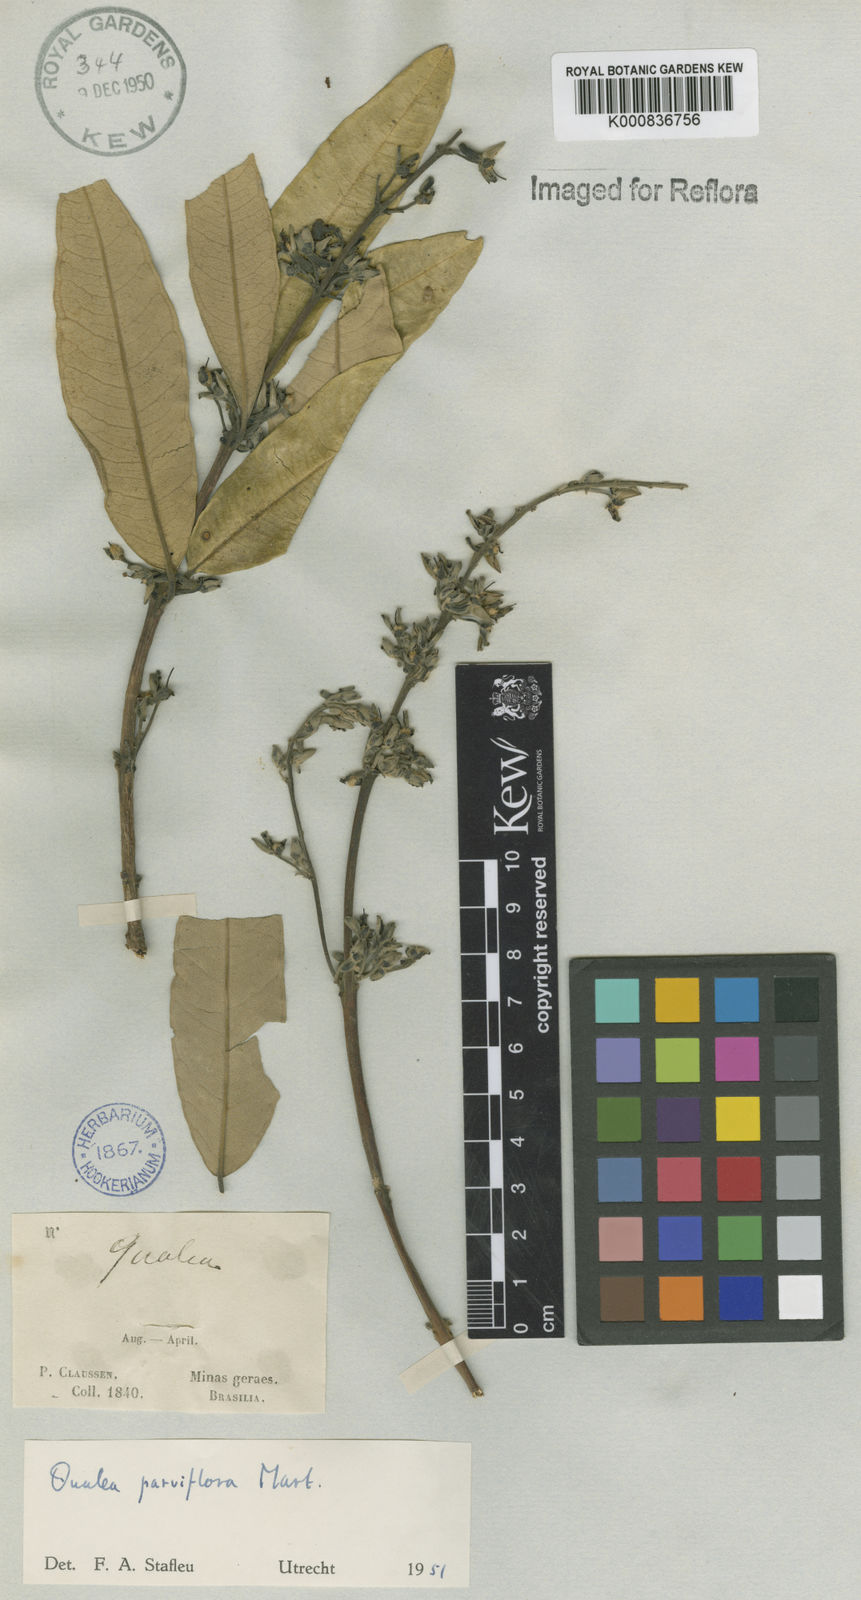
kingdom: Plantae
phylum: Tracheophyta
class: Magnoliopsida
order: Myrtales
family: Vochysiaceae
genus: Qualea
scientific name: Qualea parviflora
